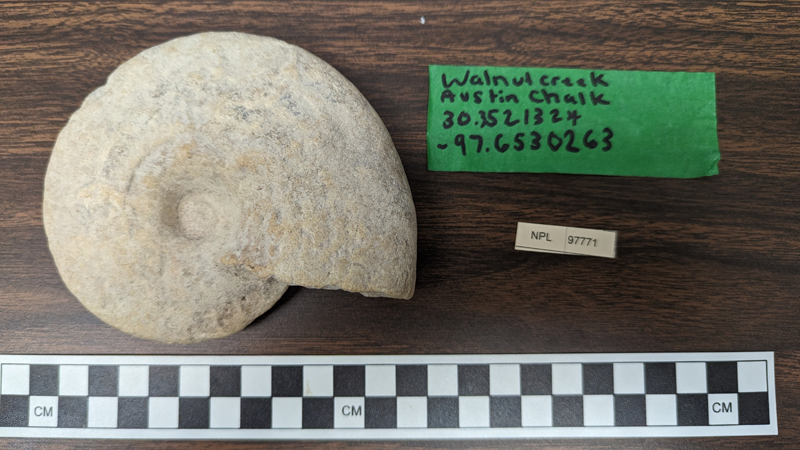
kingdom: Animalia
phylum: Mollusca
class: Cephalopoda
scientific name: Cephalopoda
